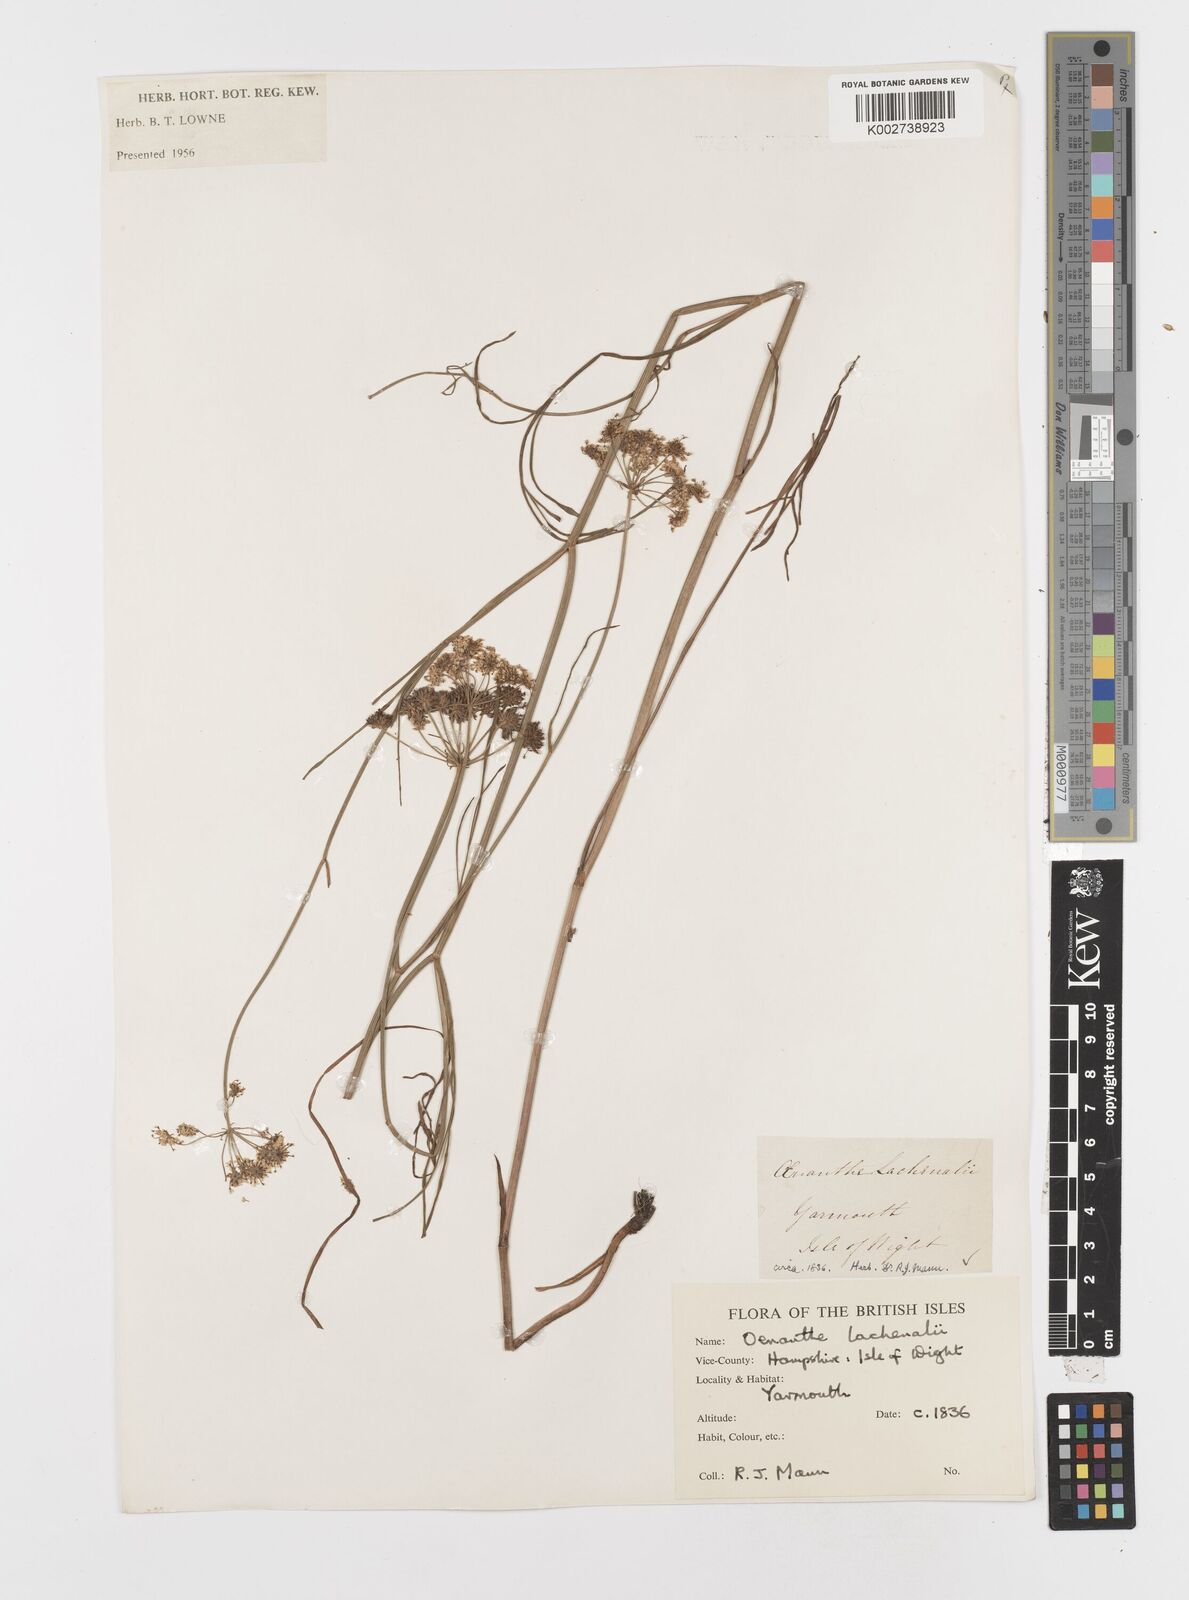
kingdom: Plantae
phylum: Tracheophyta
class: Magnoliopsida
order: Apiales
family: Apiaceae
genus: Oenanthe
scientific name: Oenanthe lachenalii
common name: Parsley water-dropwort
